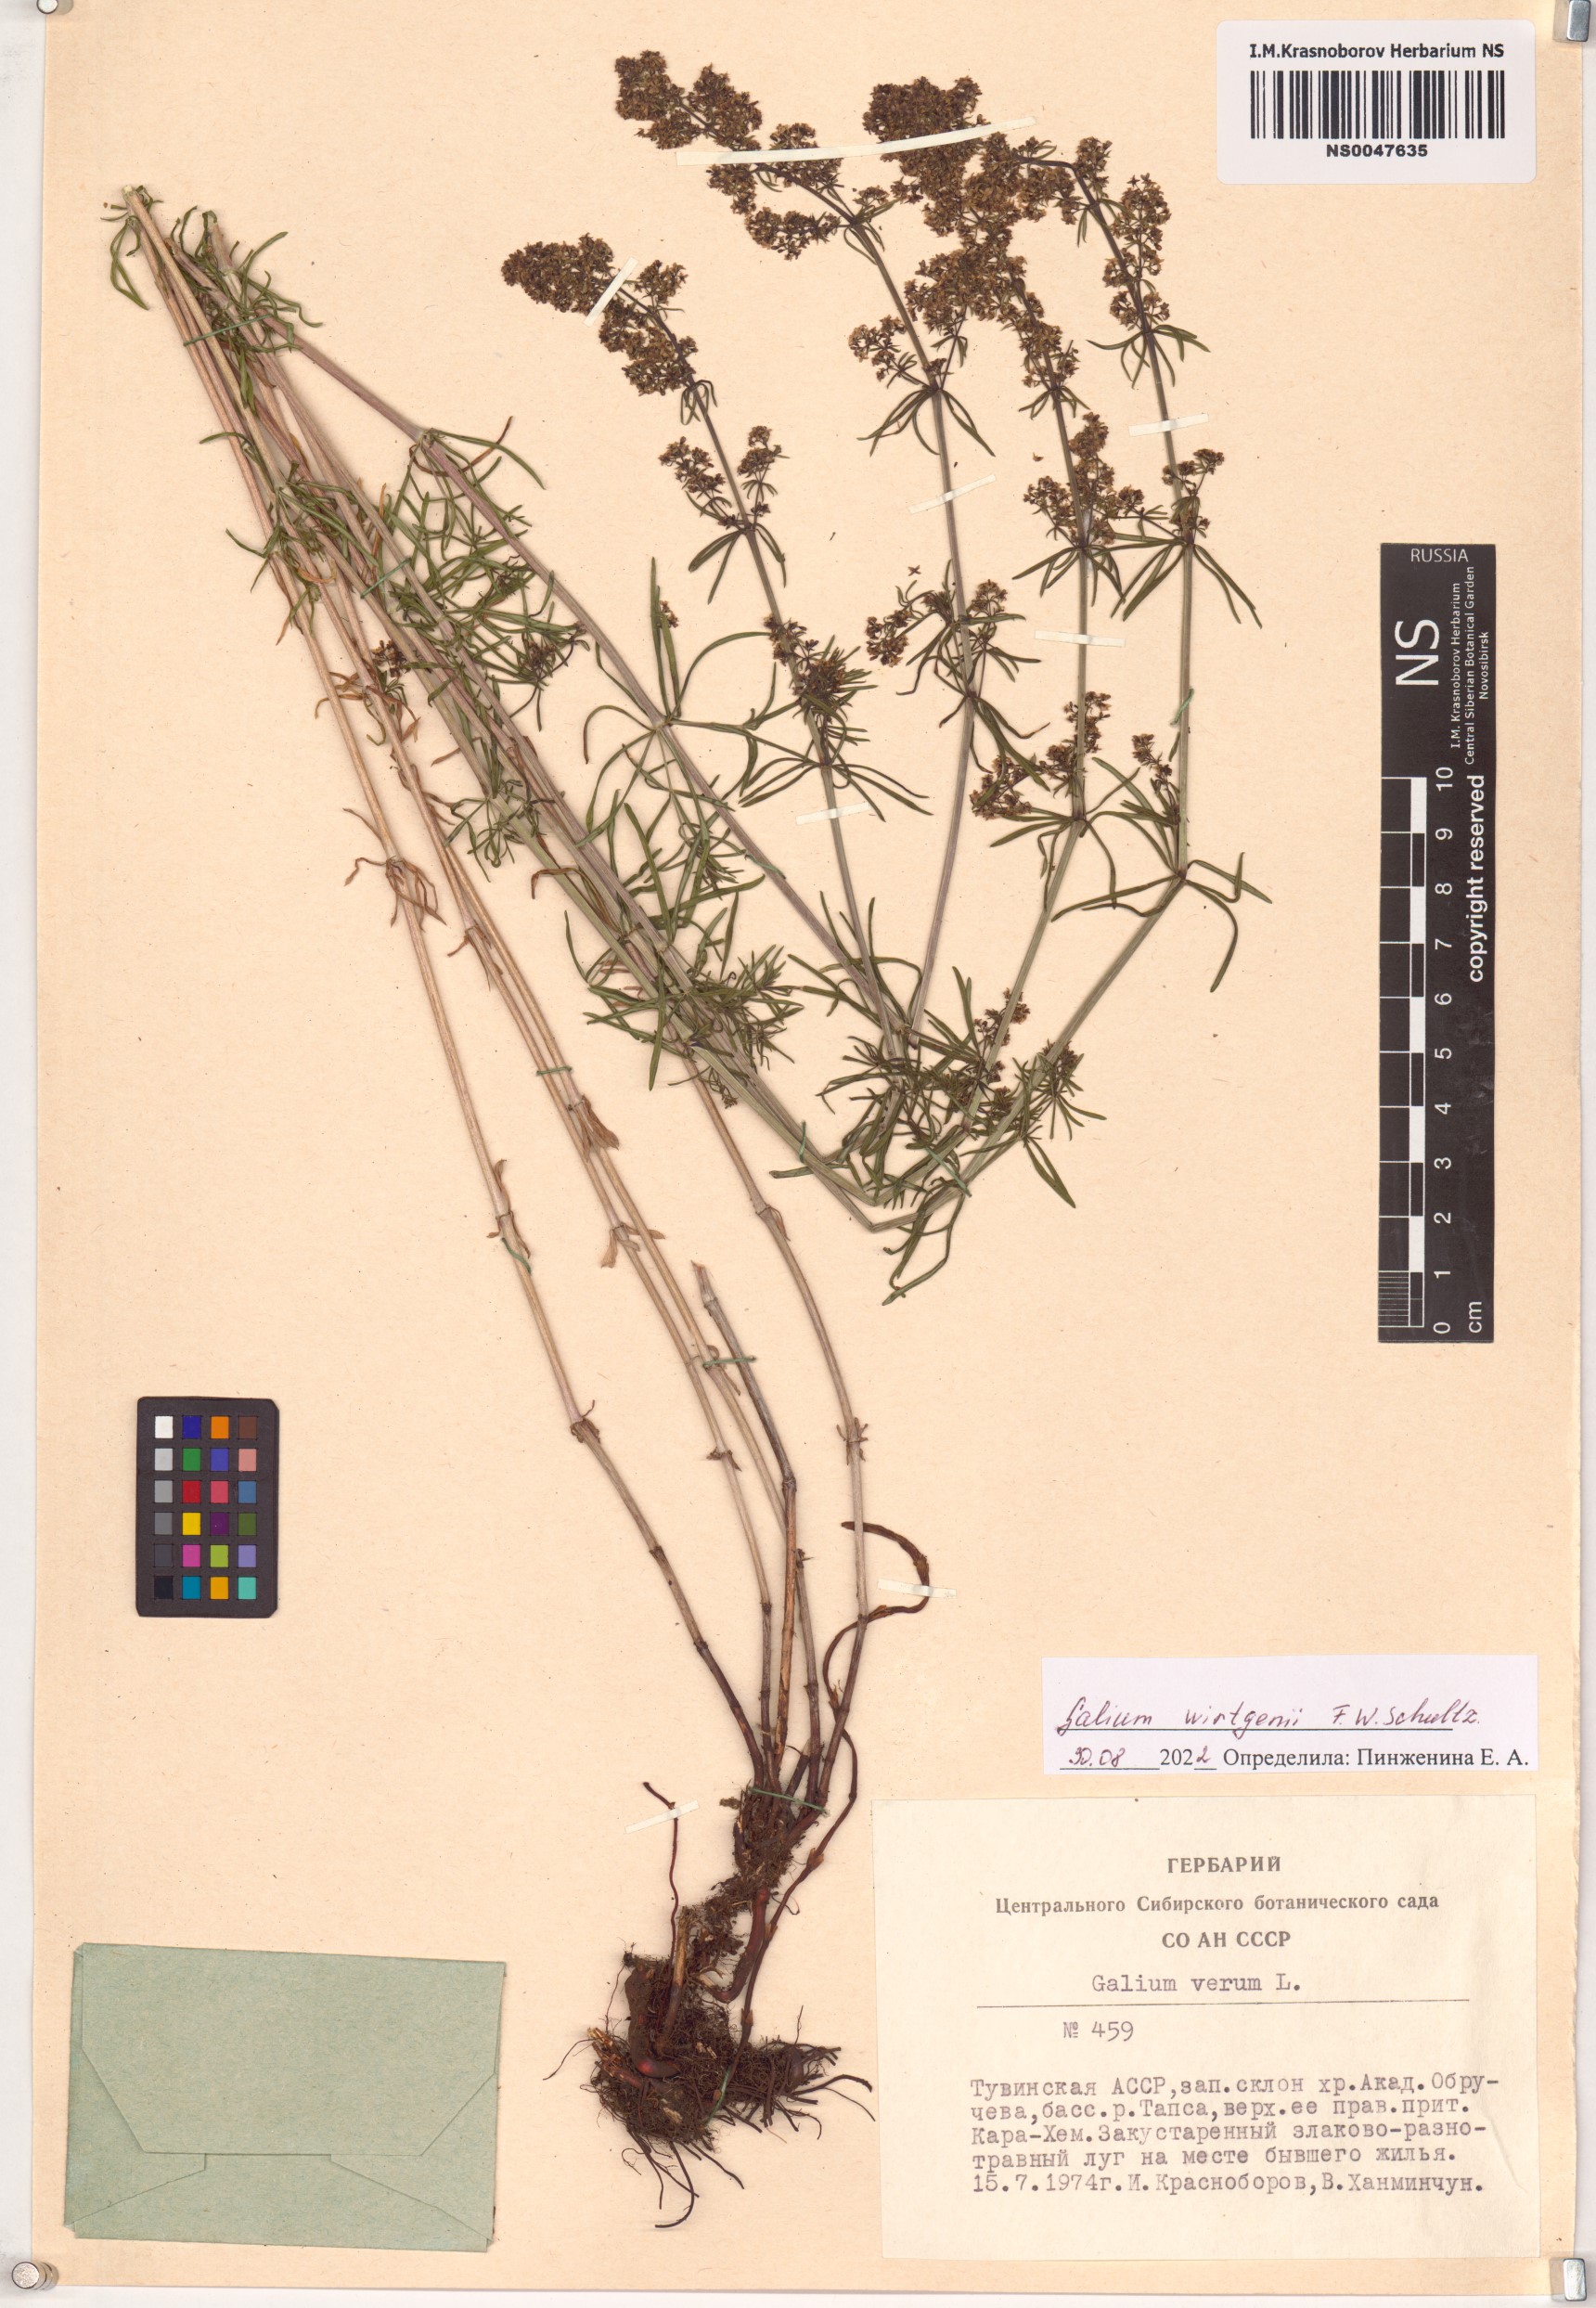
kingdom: Plantae
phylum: Tracheophyta
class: Magnoliopsida
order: Gentianales
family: Rubiaceae
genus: Galium
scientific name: Galium verum
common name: Lady's bedstraw
